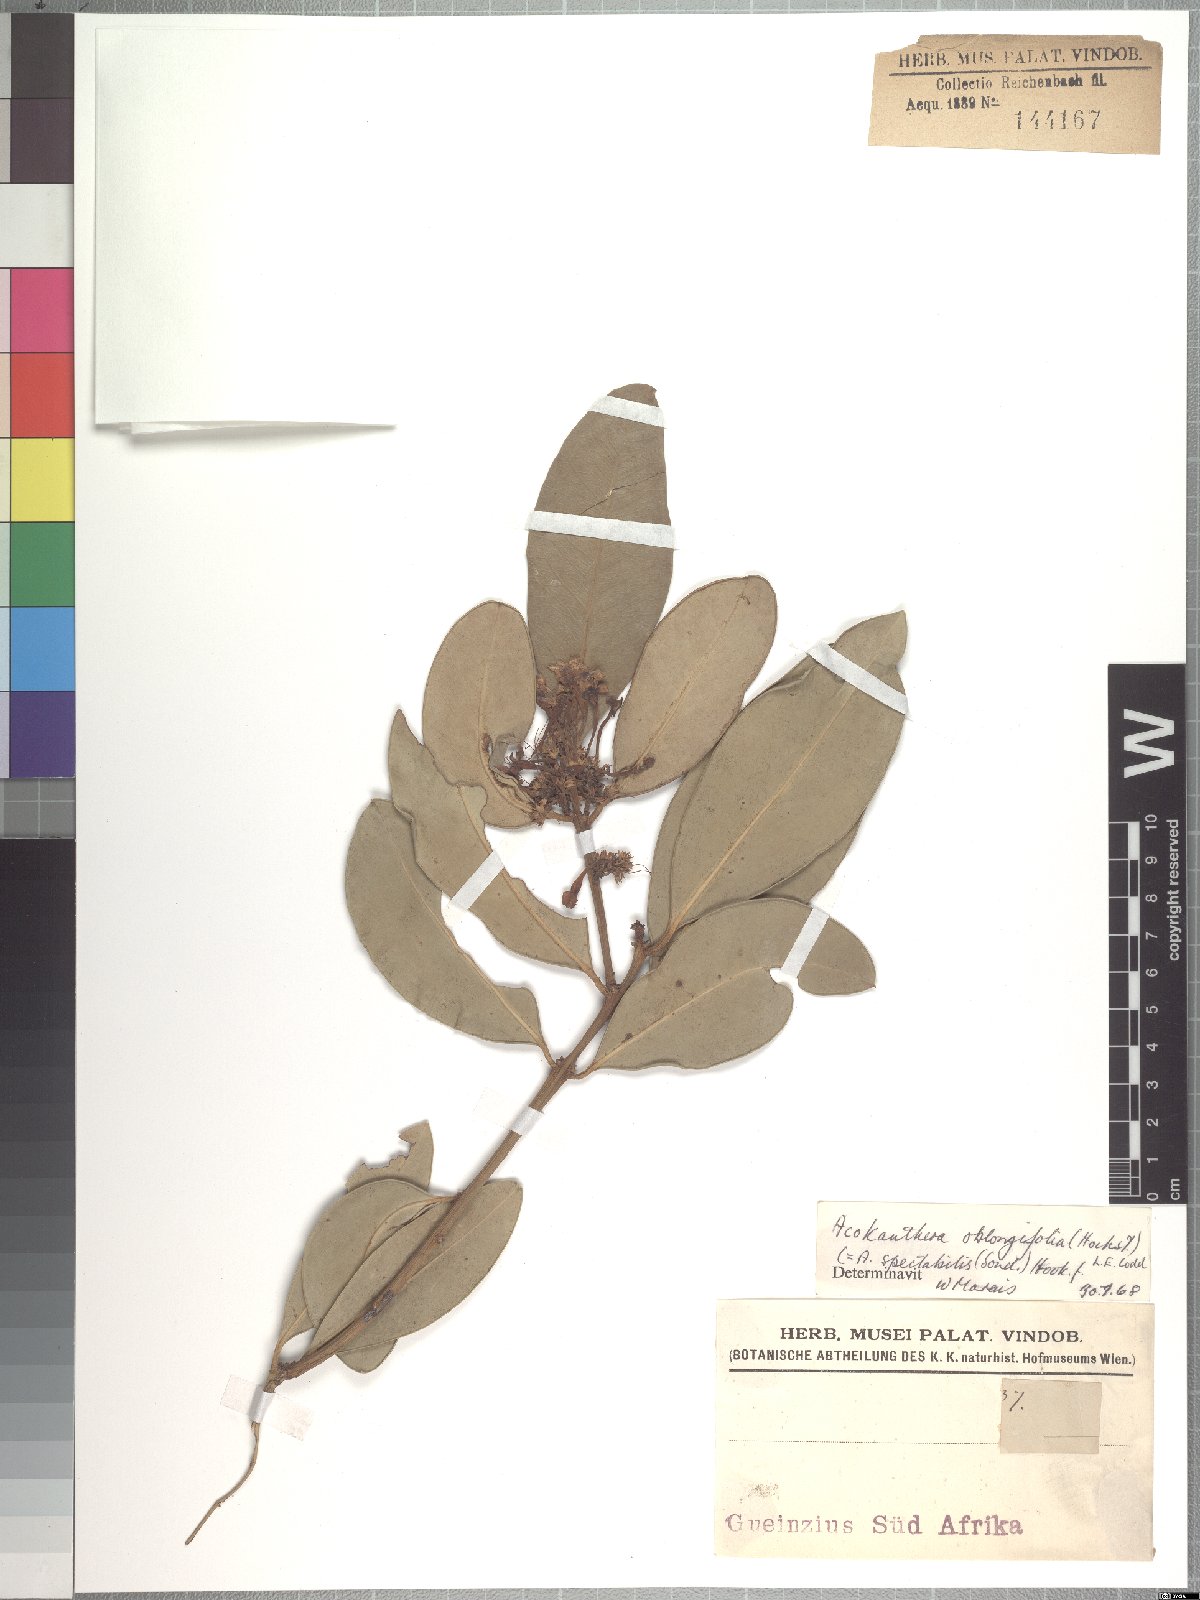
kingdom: Plantae
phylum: Tracheophyta
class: Magnoliopsida
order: Gentianales
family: Apocynaceae
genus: Acokanthera
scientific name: Acokanthera oblongifolia
